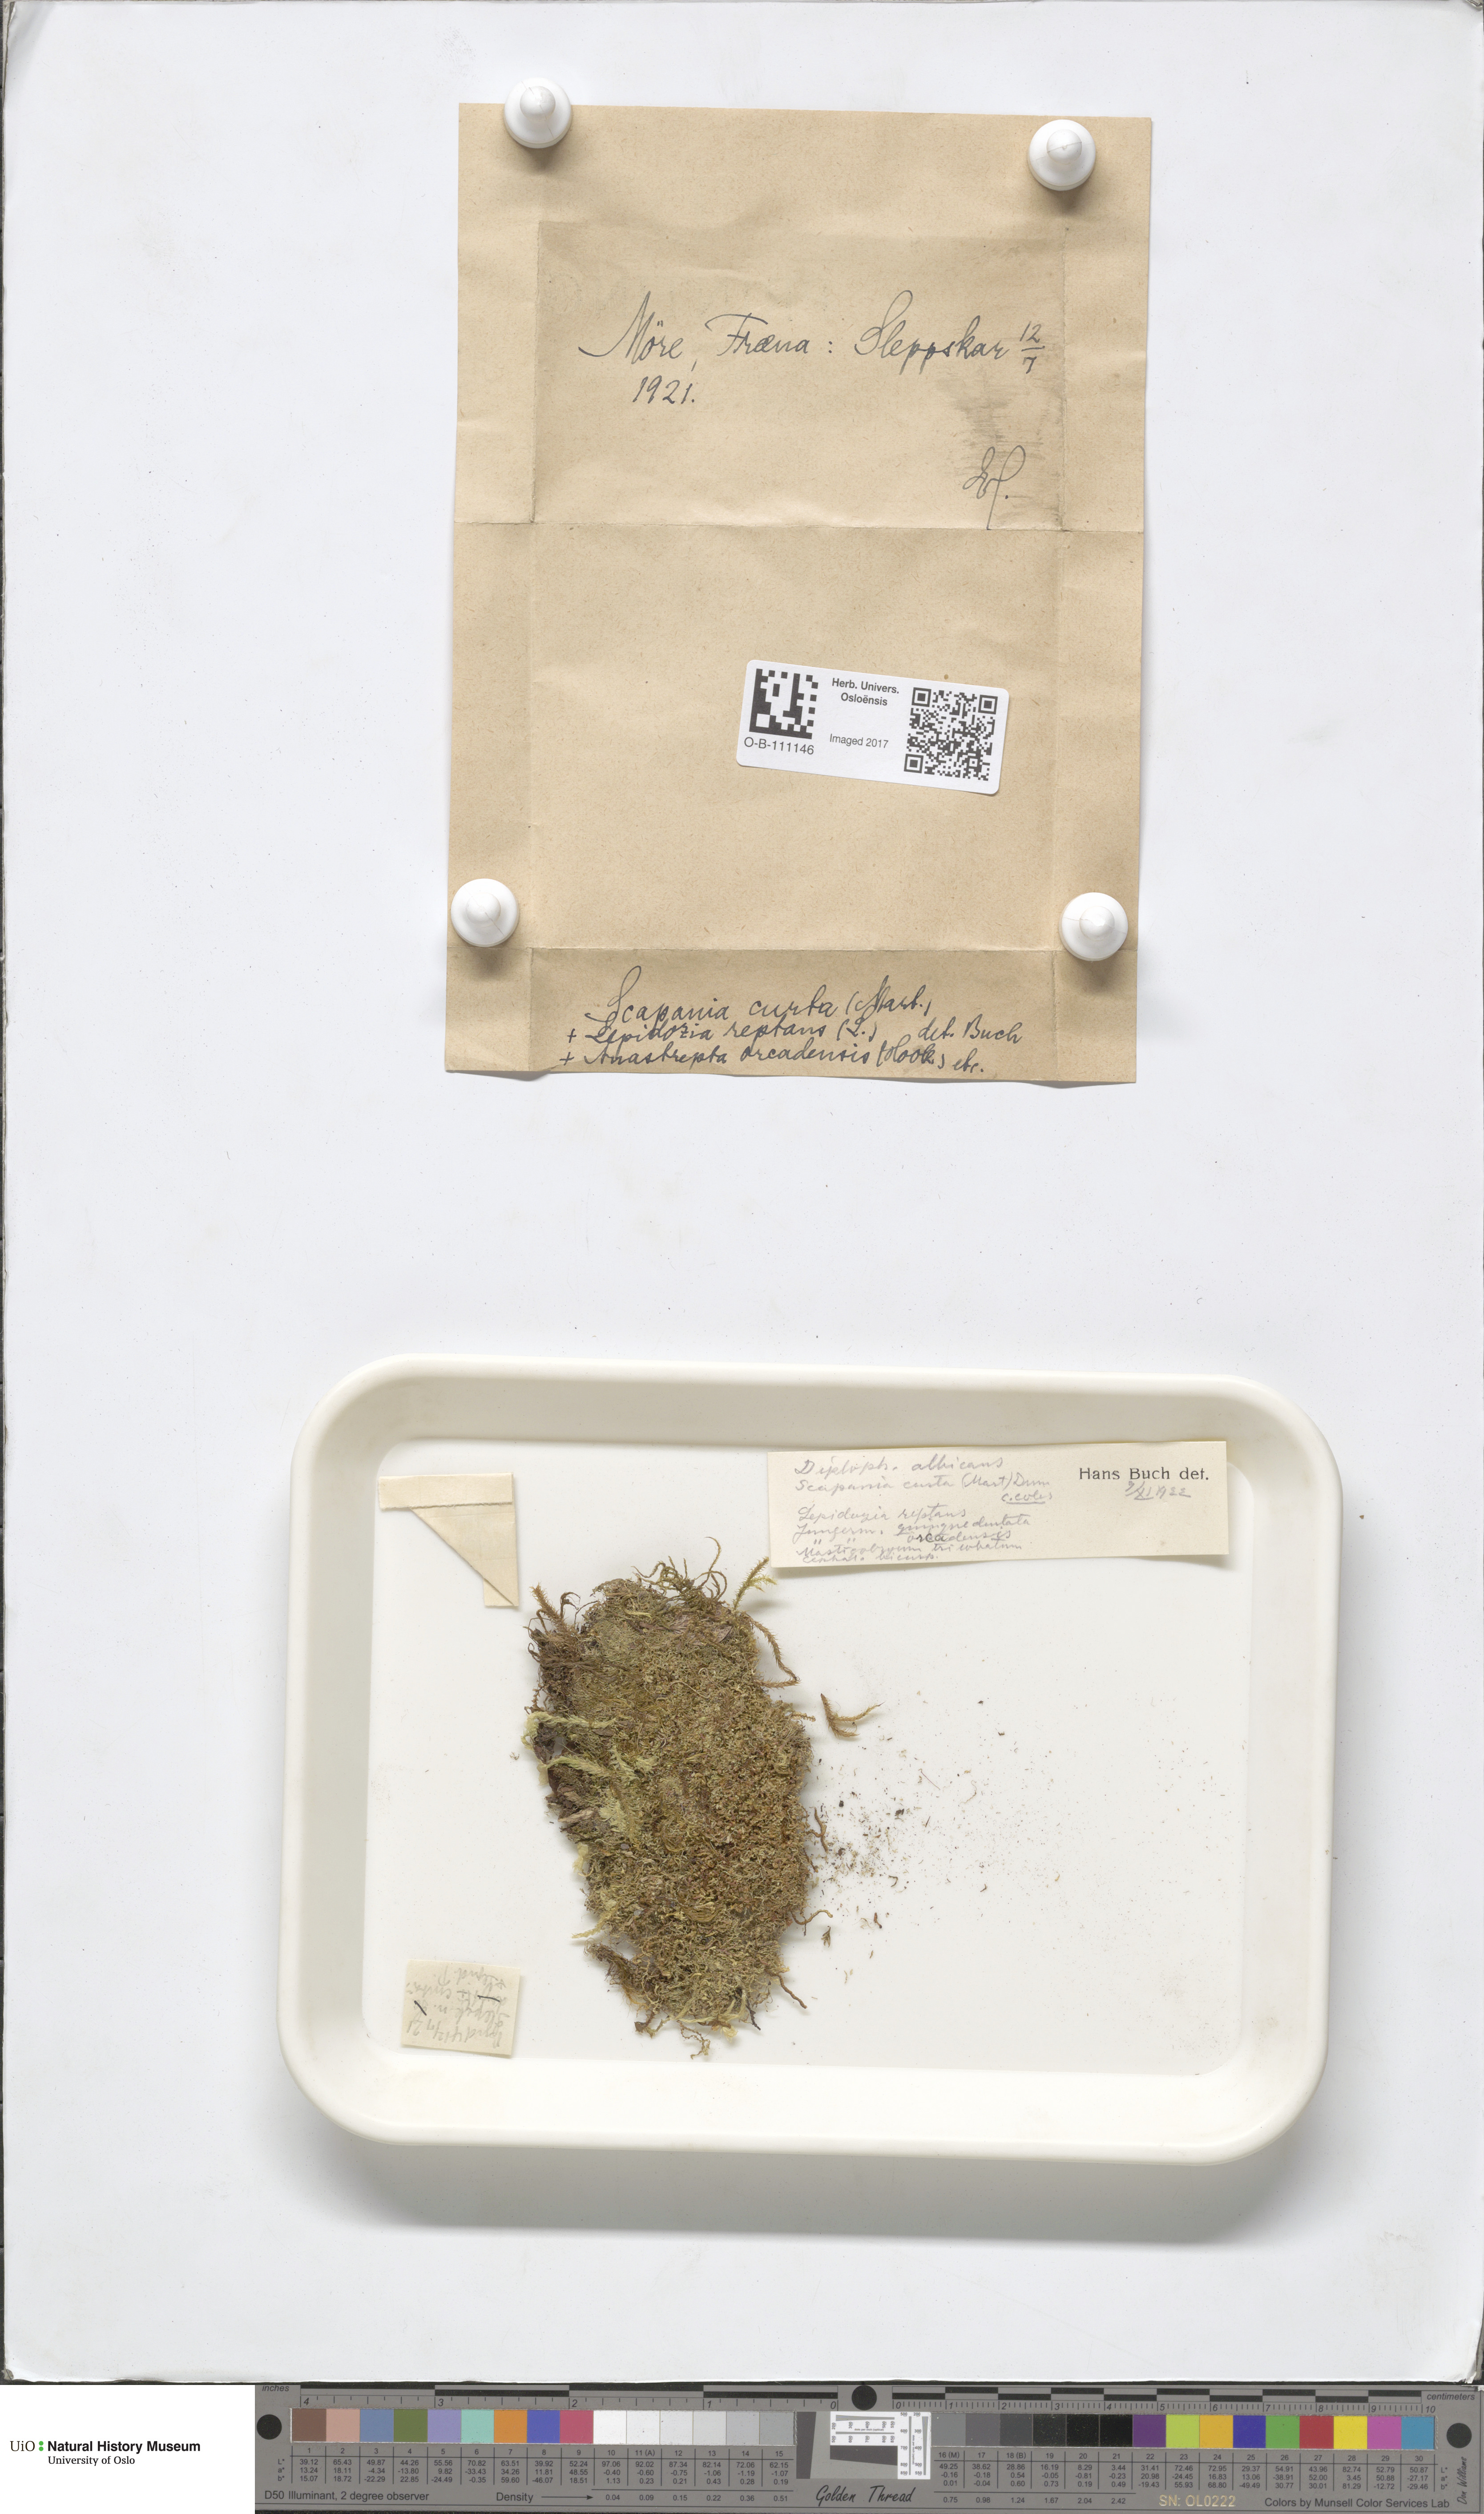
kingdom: Plantae
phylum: Marchantiophyta
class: Jungermanniopsida
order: Jungermanniales
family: Scapaniaceae
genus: Scapania
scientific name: Scapania curta
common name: Least earwort
